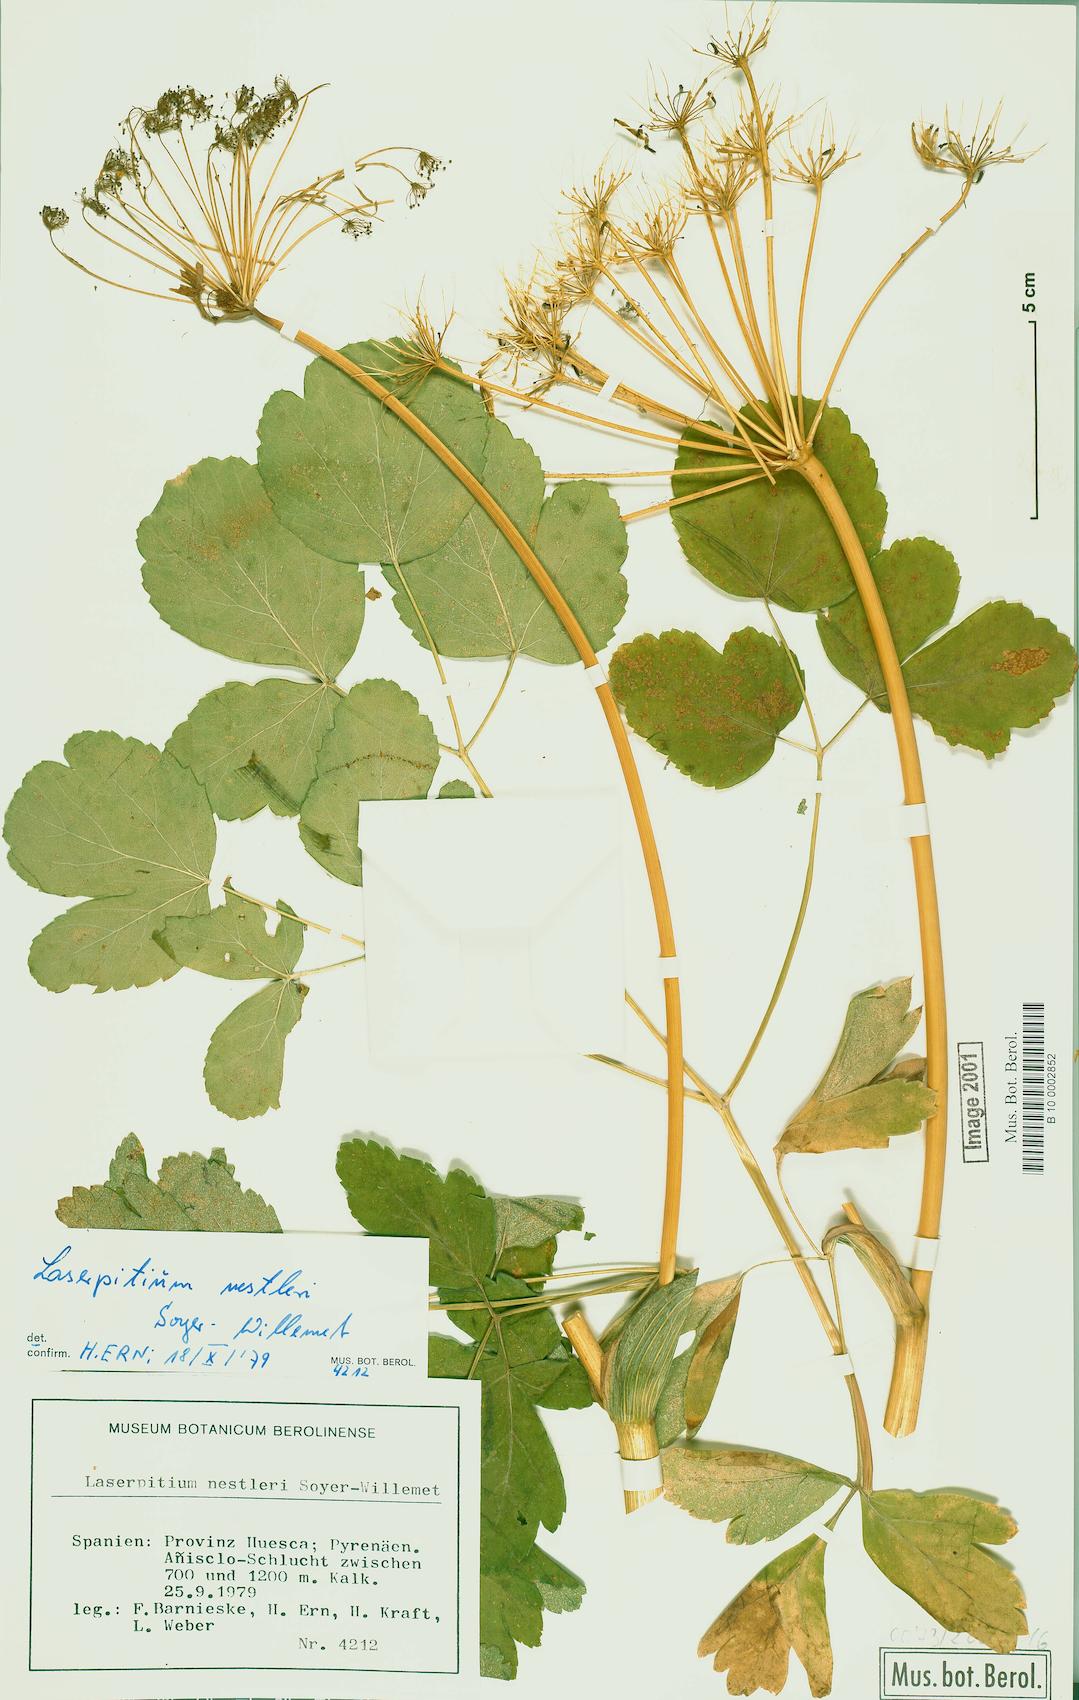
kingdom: Plantae
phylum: Tracheophyta
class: Magnoliopsida
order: Apiales
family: Apiaceae
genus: Thapsia
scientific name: Thapsia nestleri
